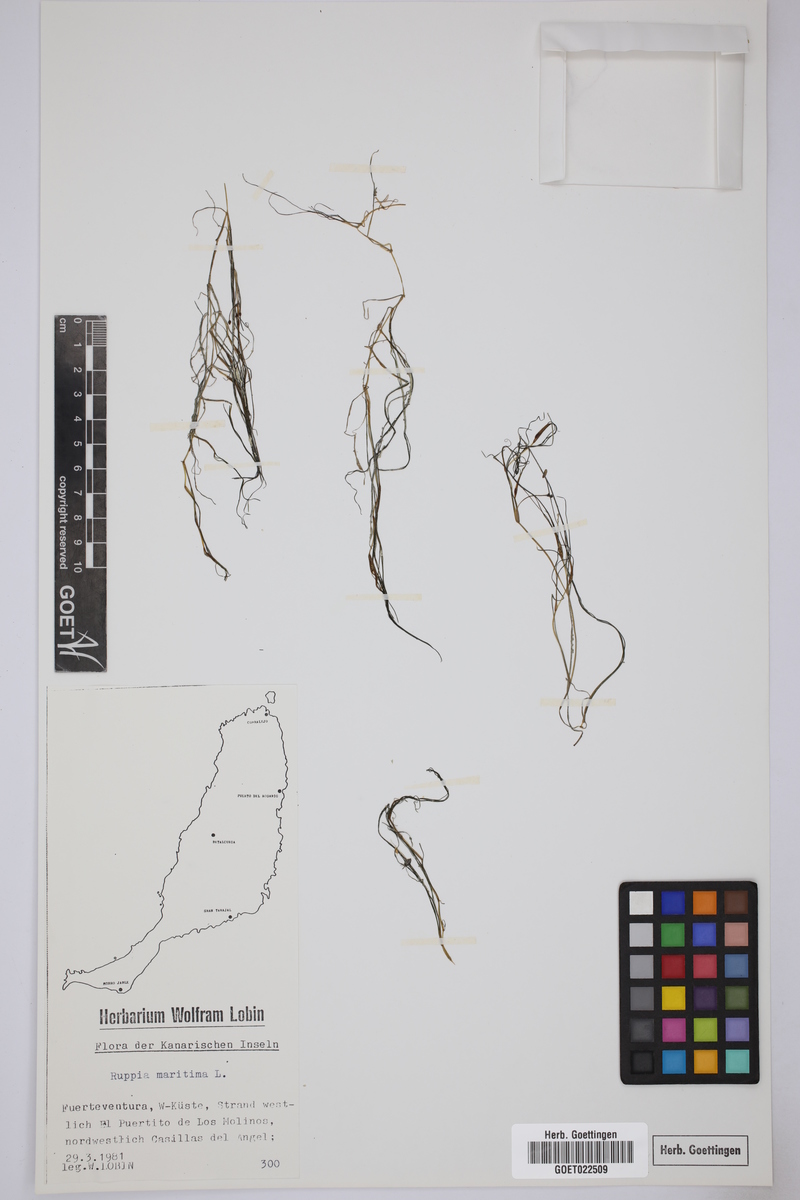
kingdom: Plantae
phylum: Tracheophyta
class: Liliopsida
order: Alismatales
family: Ruppiaceae
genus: Ruppia
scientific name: Ruppia maritima
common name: Beaked tasselweed
